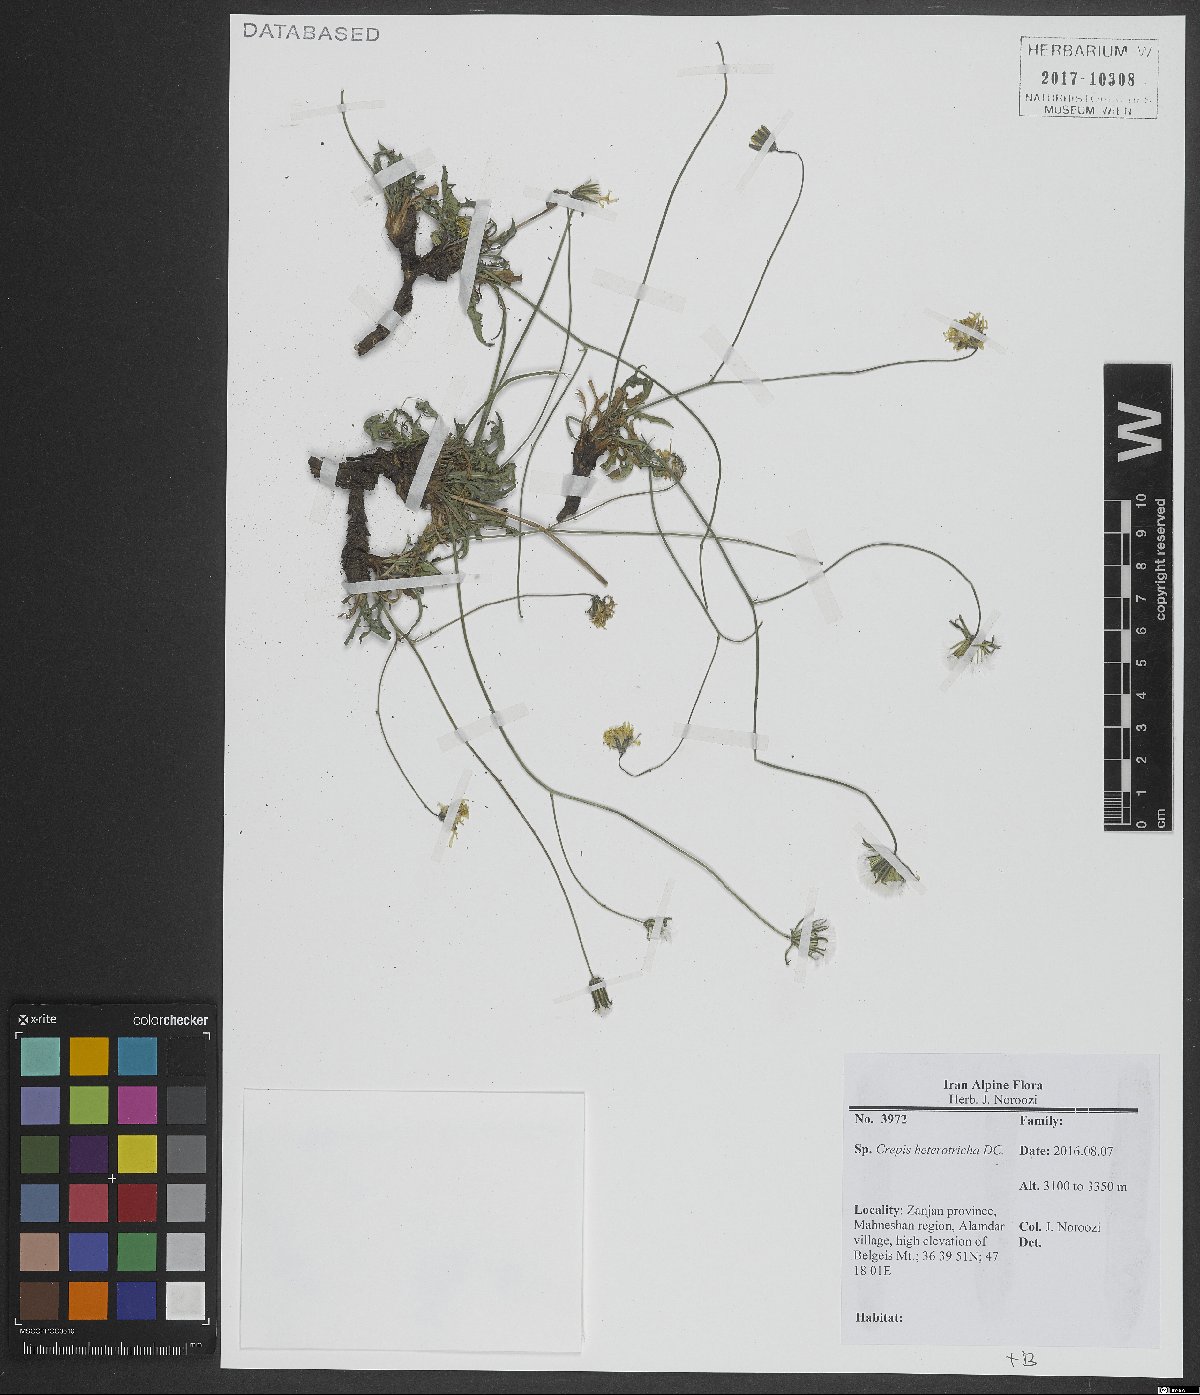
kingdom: Plantae
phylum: Tracheophyta
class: Magnoliopsida
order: Asterales
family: Asteraceae
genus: Crepis
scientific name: Crepis heterotricha
